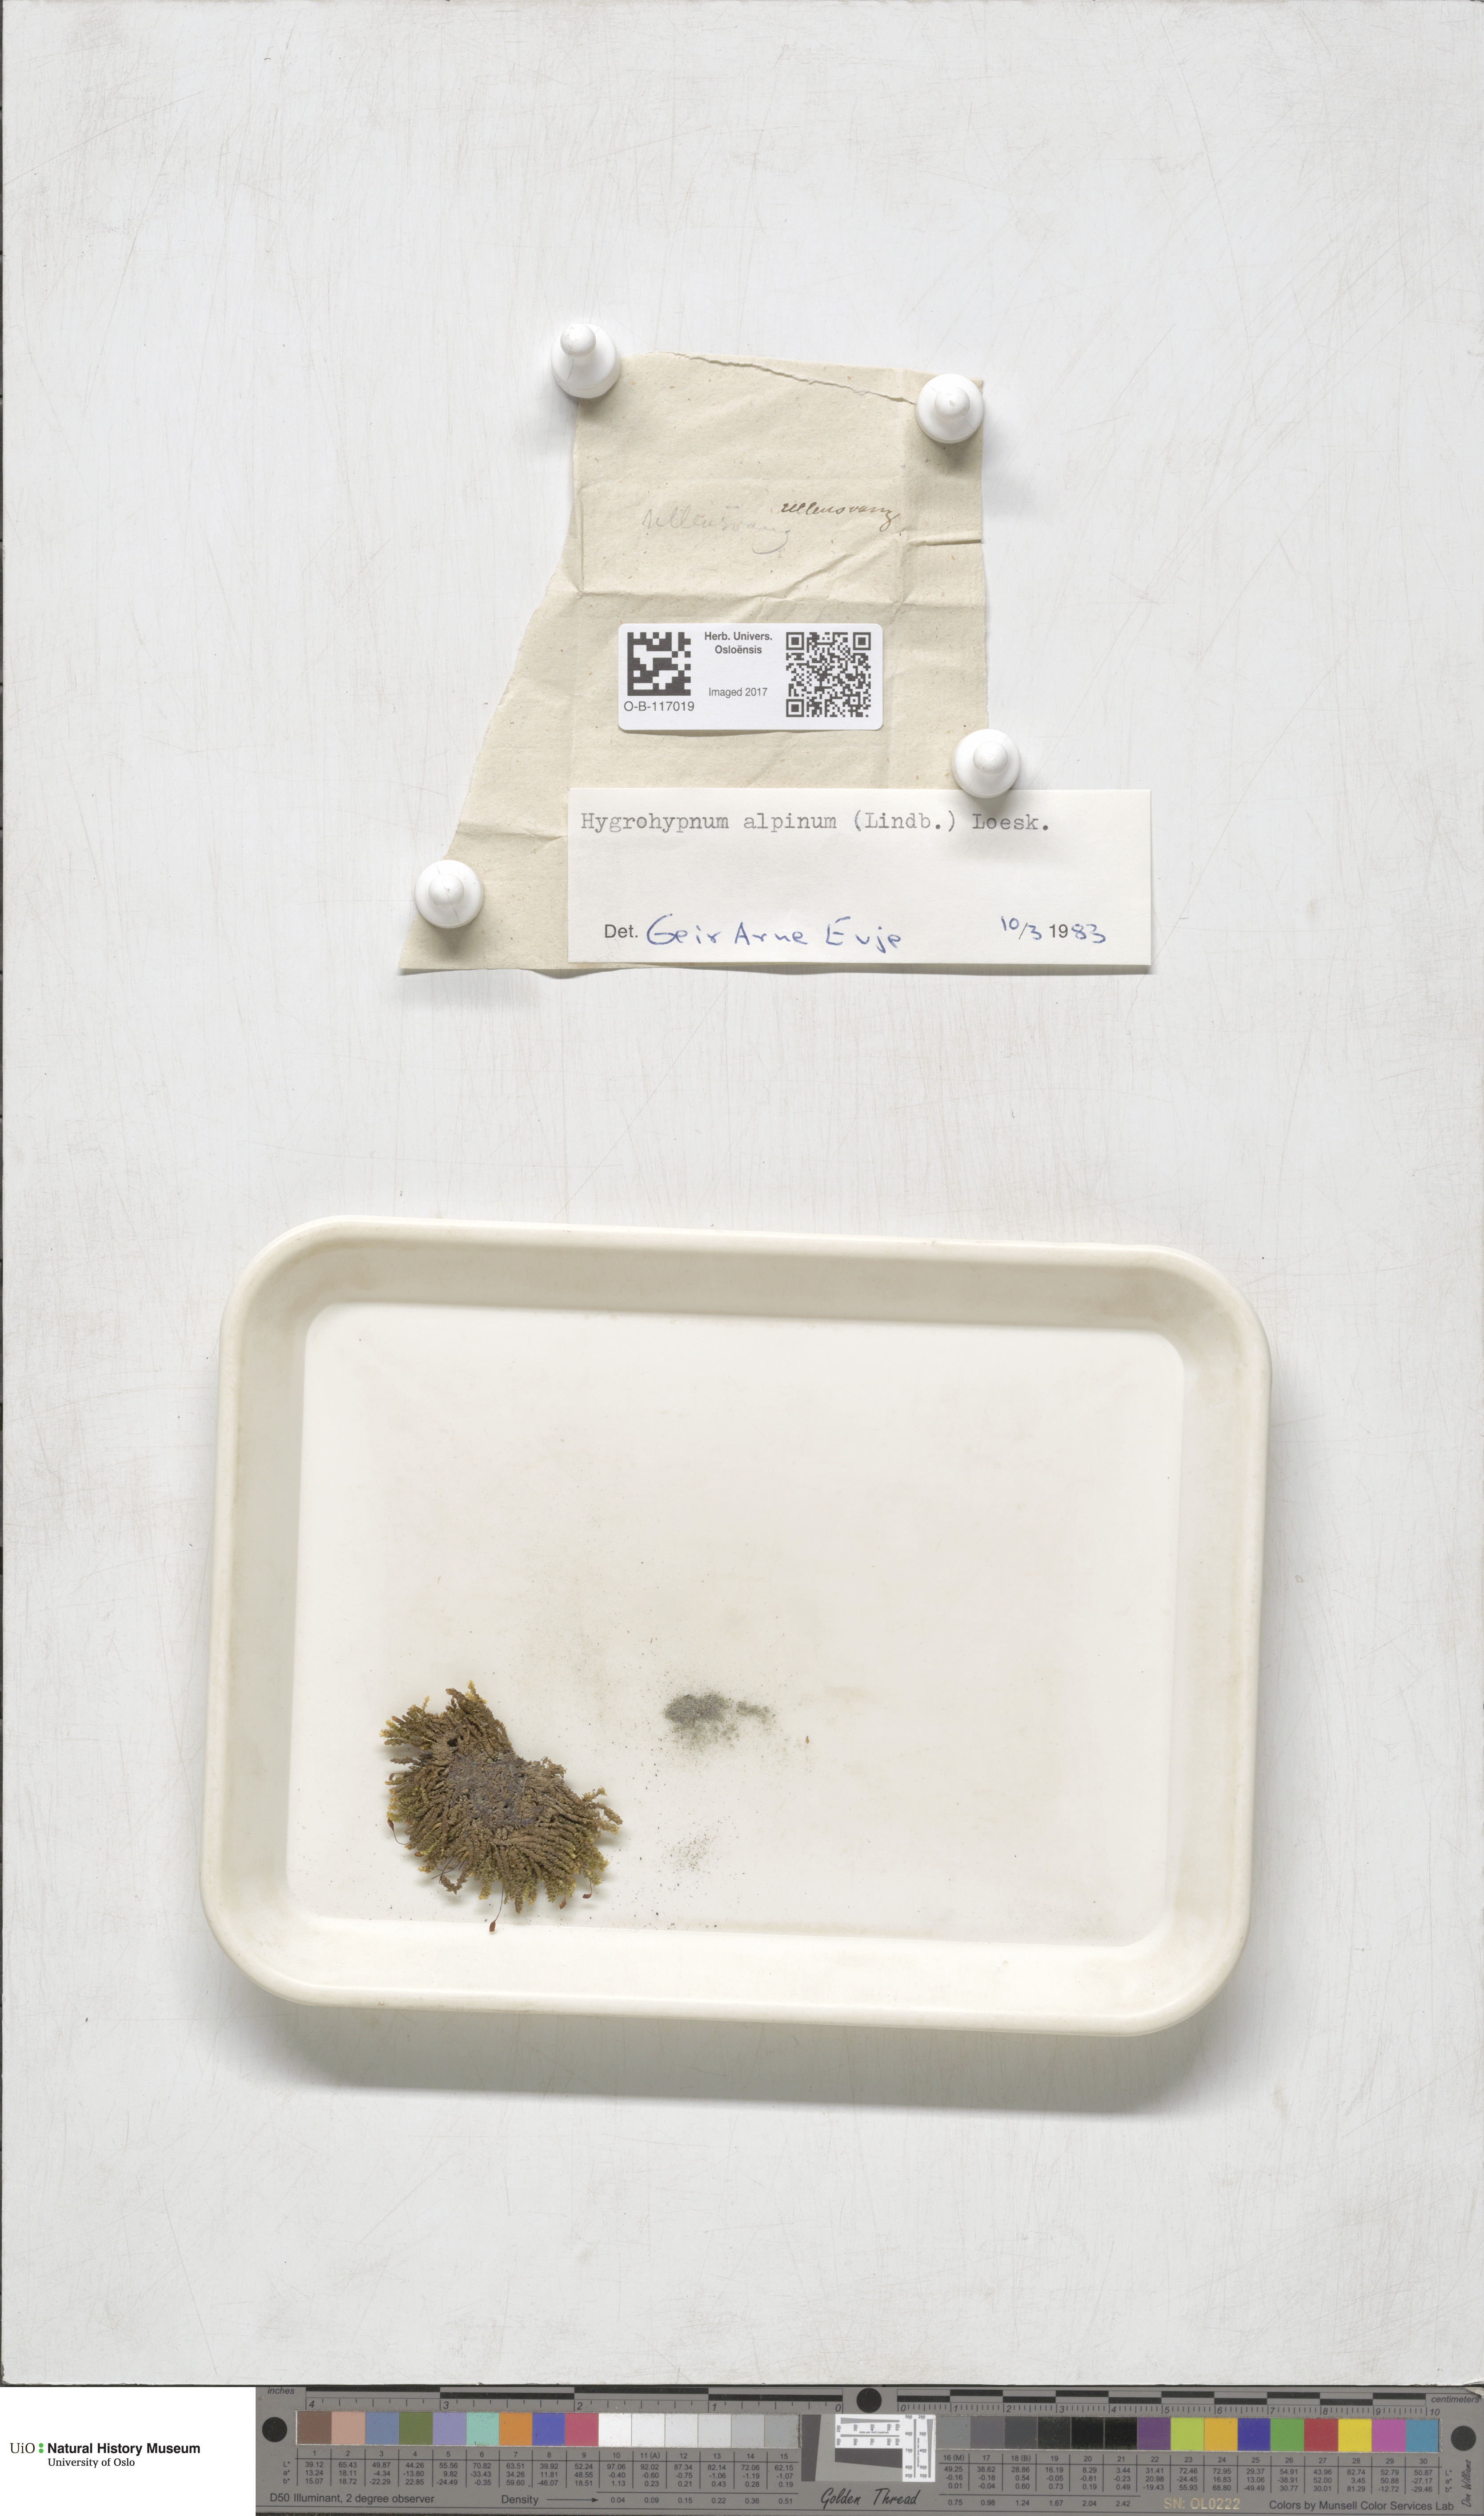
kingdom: Plantae
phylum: Bryophyta
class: Bryopsida
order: Hypnales
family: Amblystegiaceae
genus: Platyhypnum
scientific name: Platyhypnum alpinum
